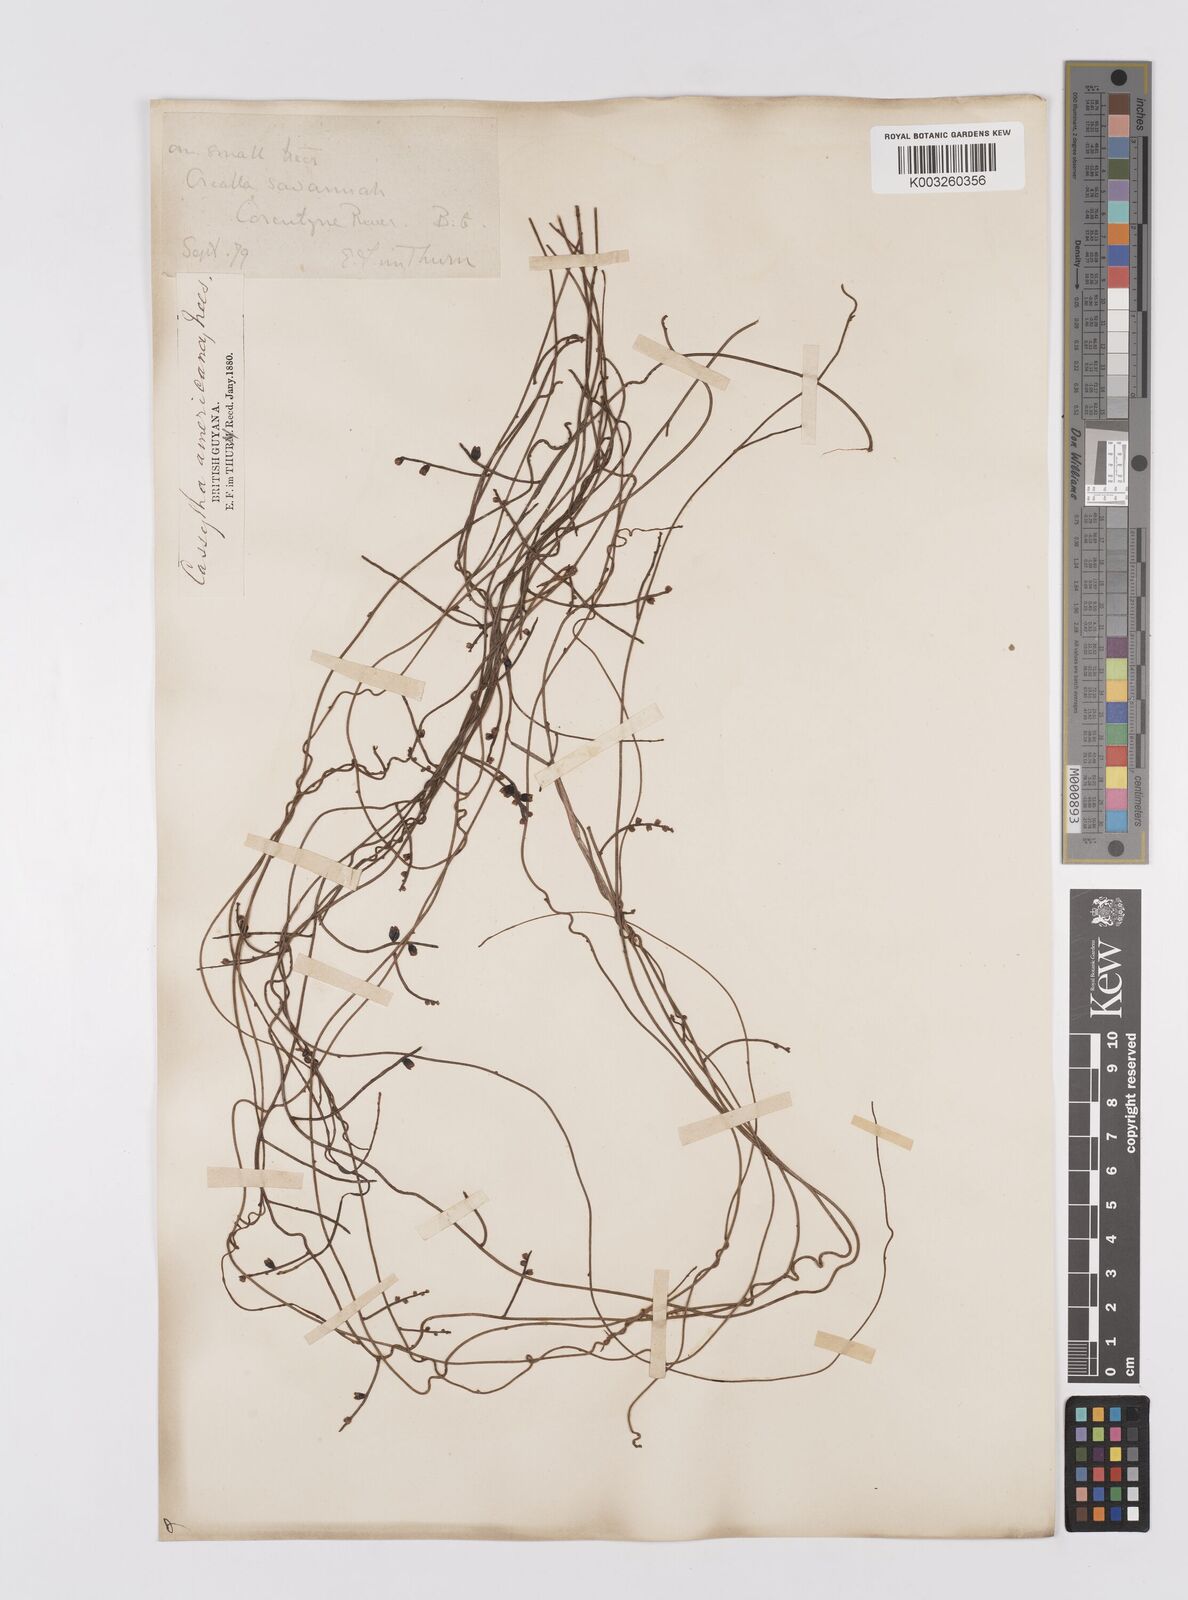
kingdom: Plantae
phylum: Tracheophyta
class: Magnoliopsida
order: Laurales
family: Lauraceae
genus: Cassytha
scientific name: Cassytha filiformis
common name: Dodder-laurel
